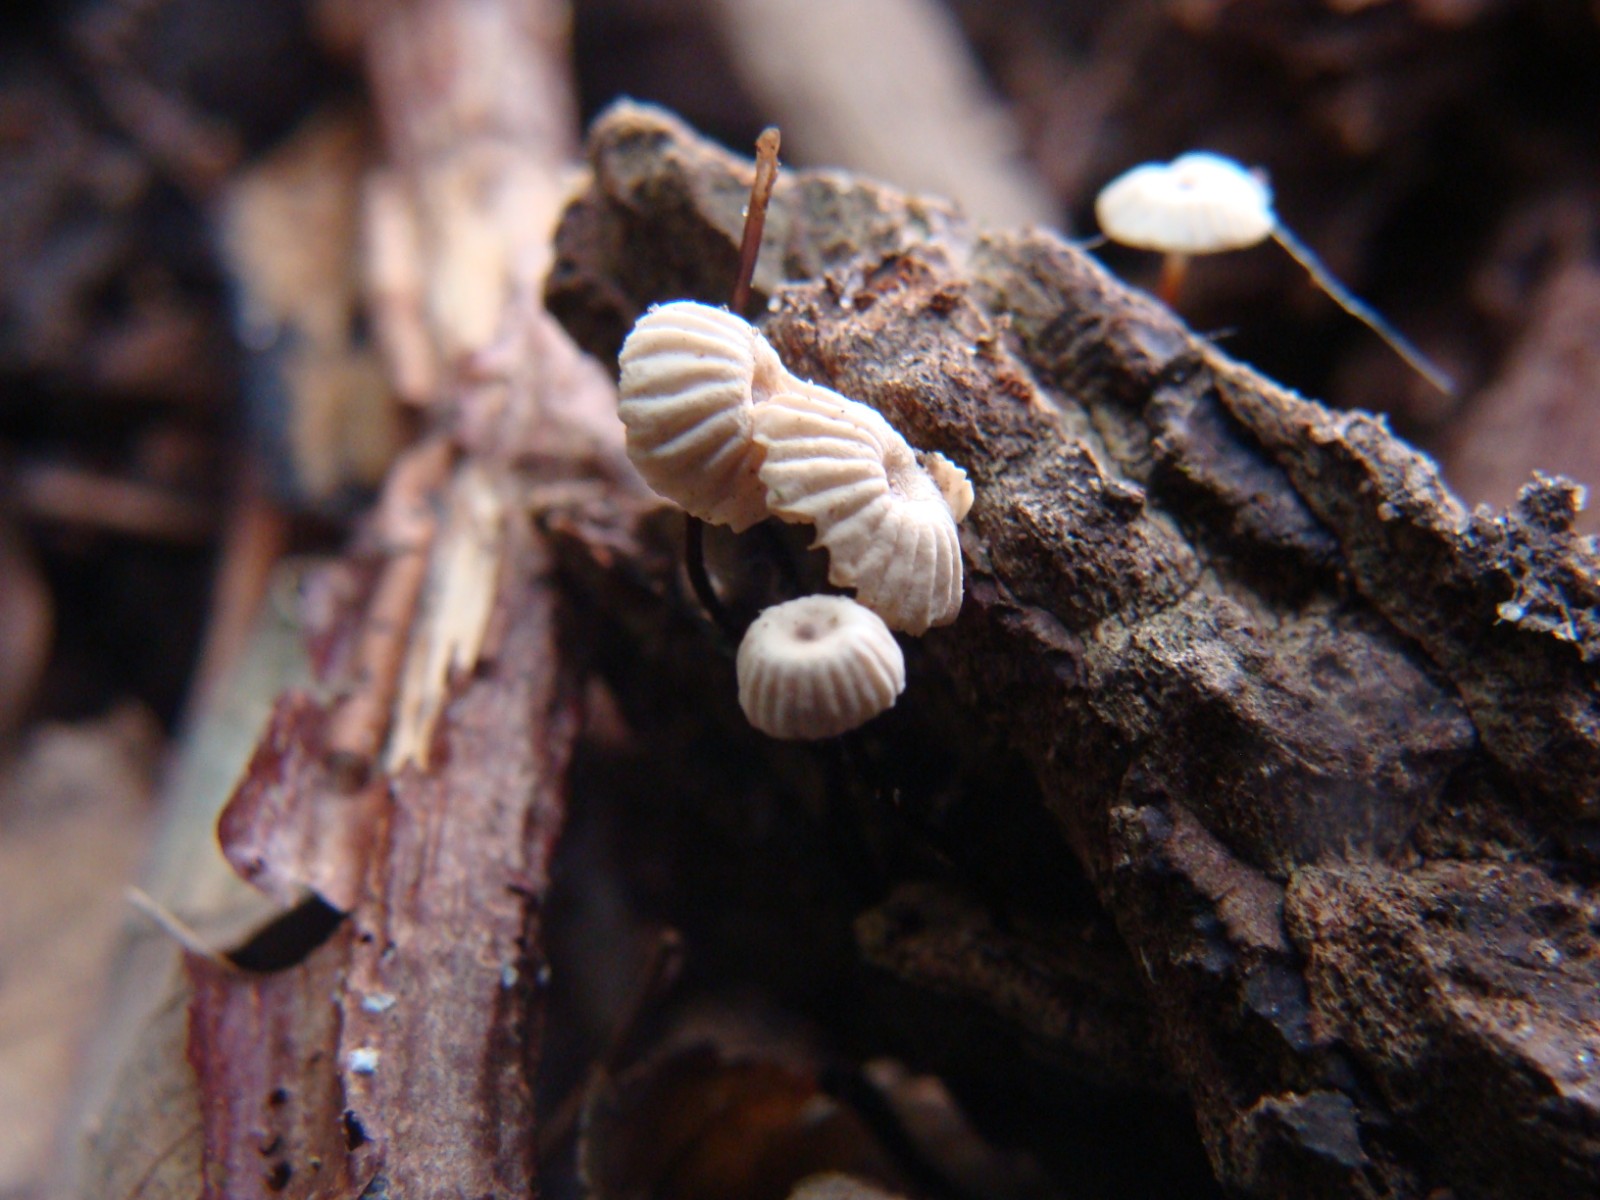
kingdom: Fungi
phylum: Basidiomycota
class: Agaricomycetes
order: Agaricales
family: Marasmiaceae
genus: Marasmius
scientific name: Marasmius rotula
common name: hjul-bruskhat
